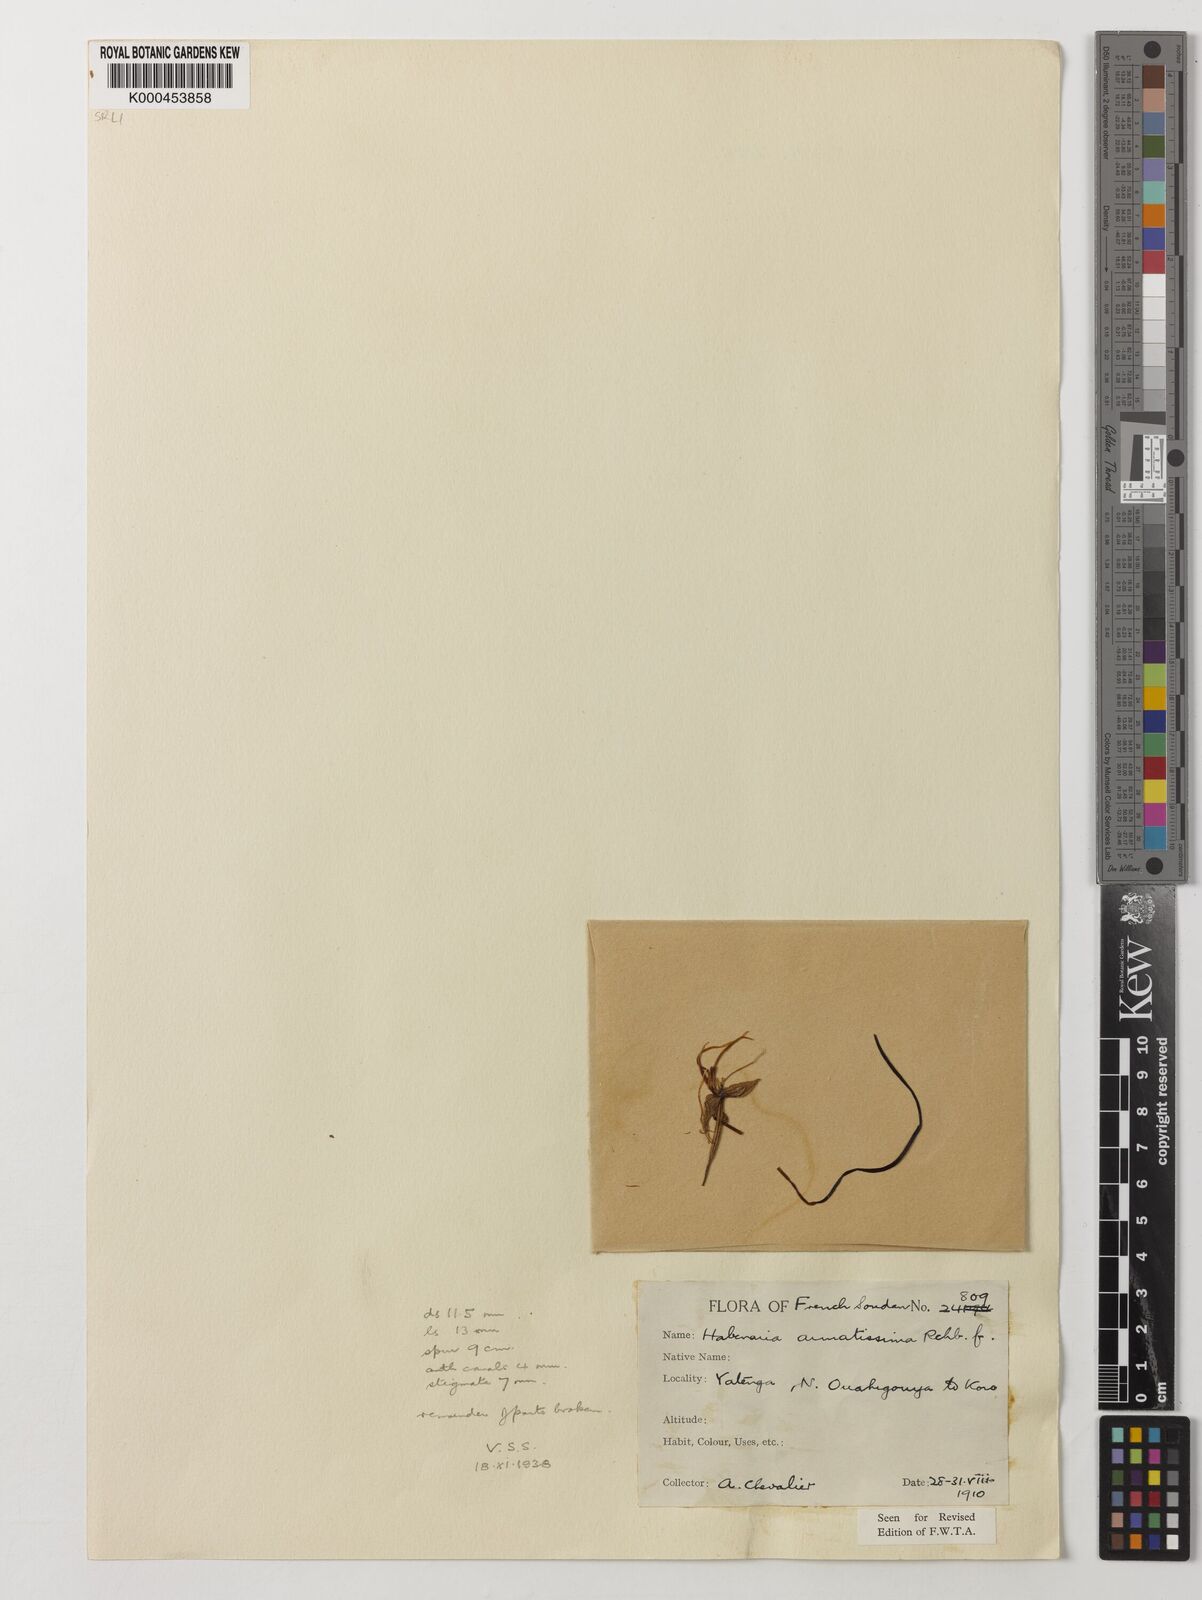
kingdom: Plantae
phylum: Tracheophyta
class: Liliopsida
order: Asparagales
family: Orchidaceae
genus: Habenaria
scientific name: Habenaria armatissima
